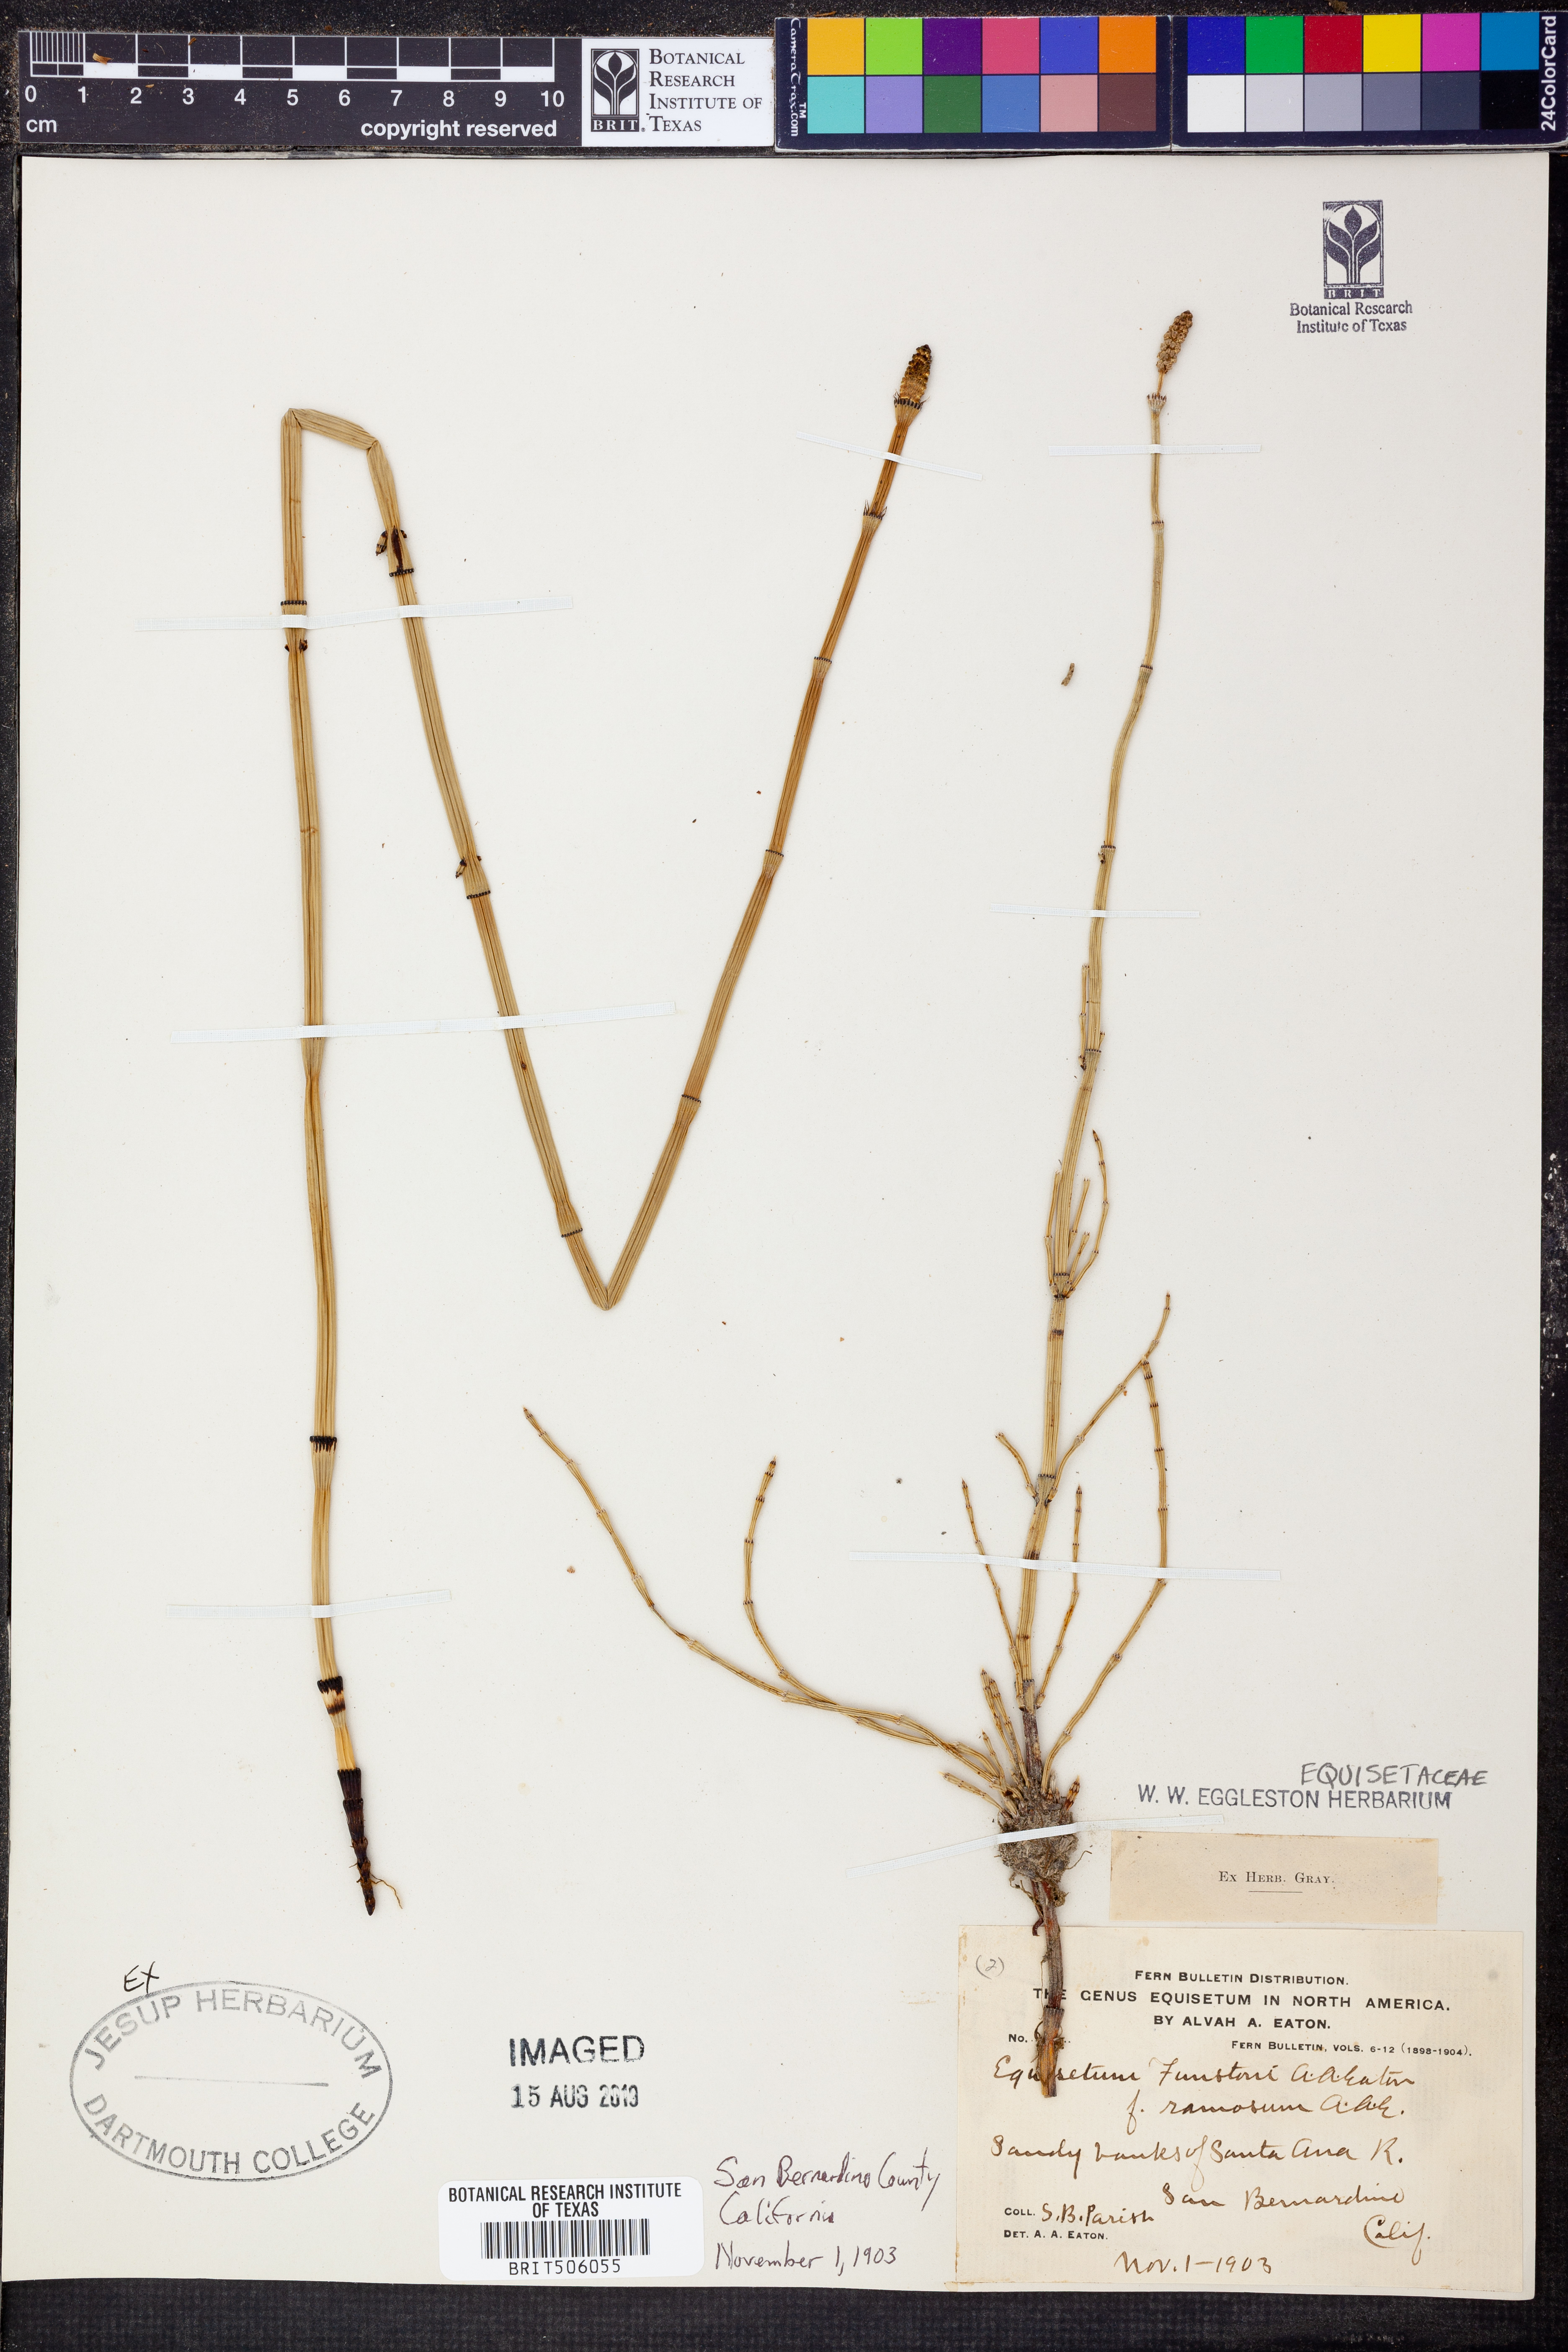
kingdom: Plantae
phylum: Tracheophyta
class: Polypodiopsida
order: Equisetales
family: Equisetaceae
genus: Equisetum
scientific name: Equisetum laevigatum
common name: Smooth scouring-rush
